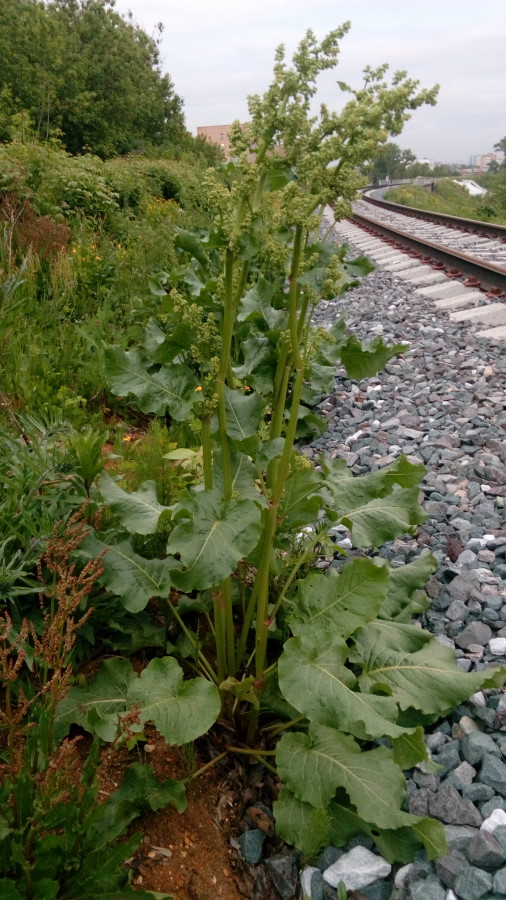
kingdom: Plantae
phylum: Tracheophyta
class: Magnoliopsida
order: Caryophyllales
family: Polygonaceae
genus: Rumex
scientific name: Rumex confertus
